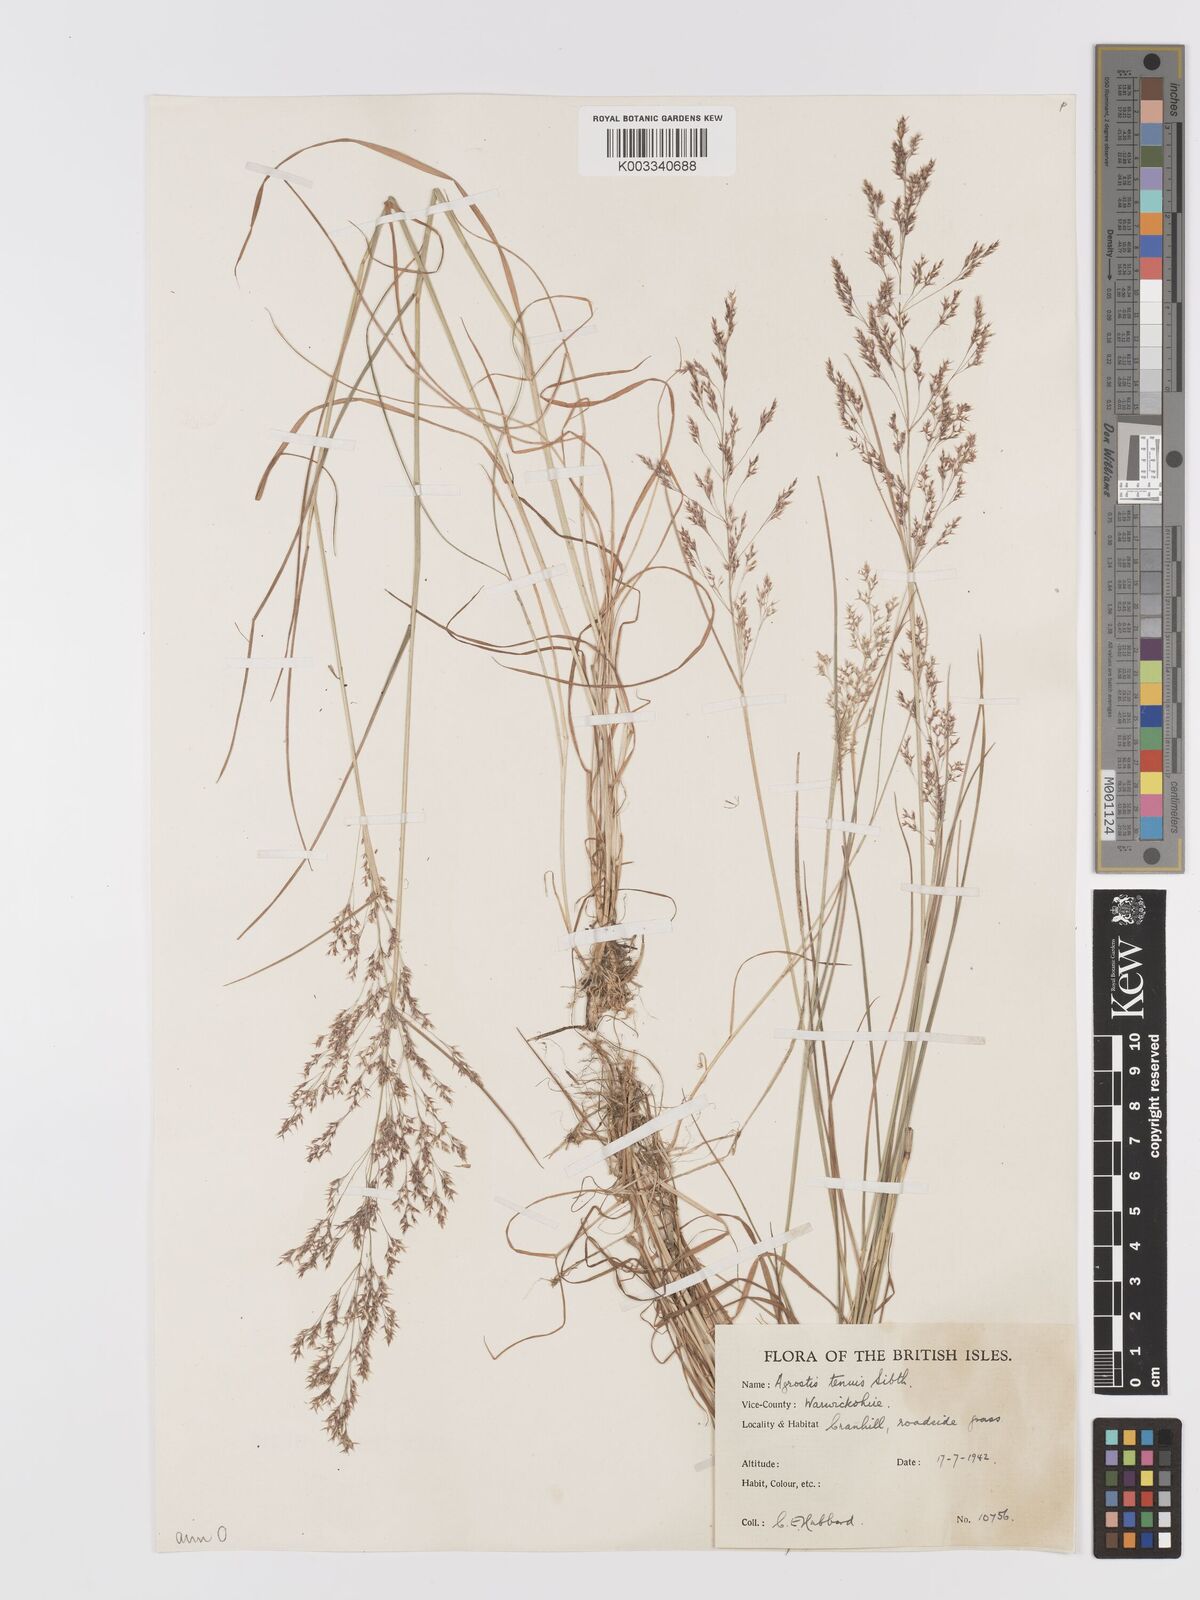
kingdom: Plantae
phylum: Tracheophyta
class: Liliopsida
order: Poales
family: Poaceae
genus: Agrostis
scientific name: Agrostis capillaris
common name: Colonial bentgrass
